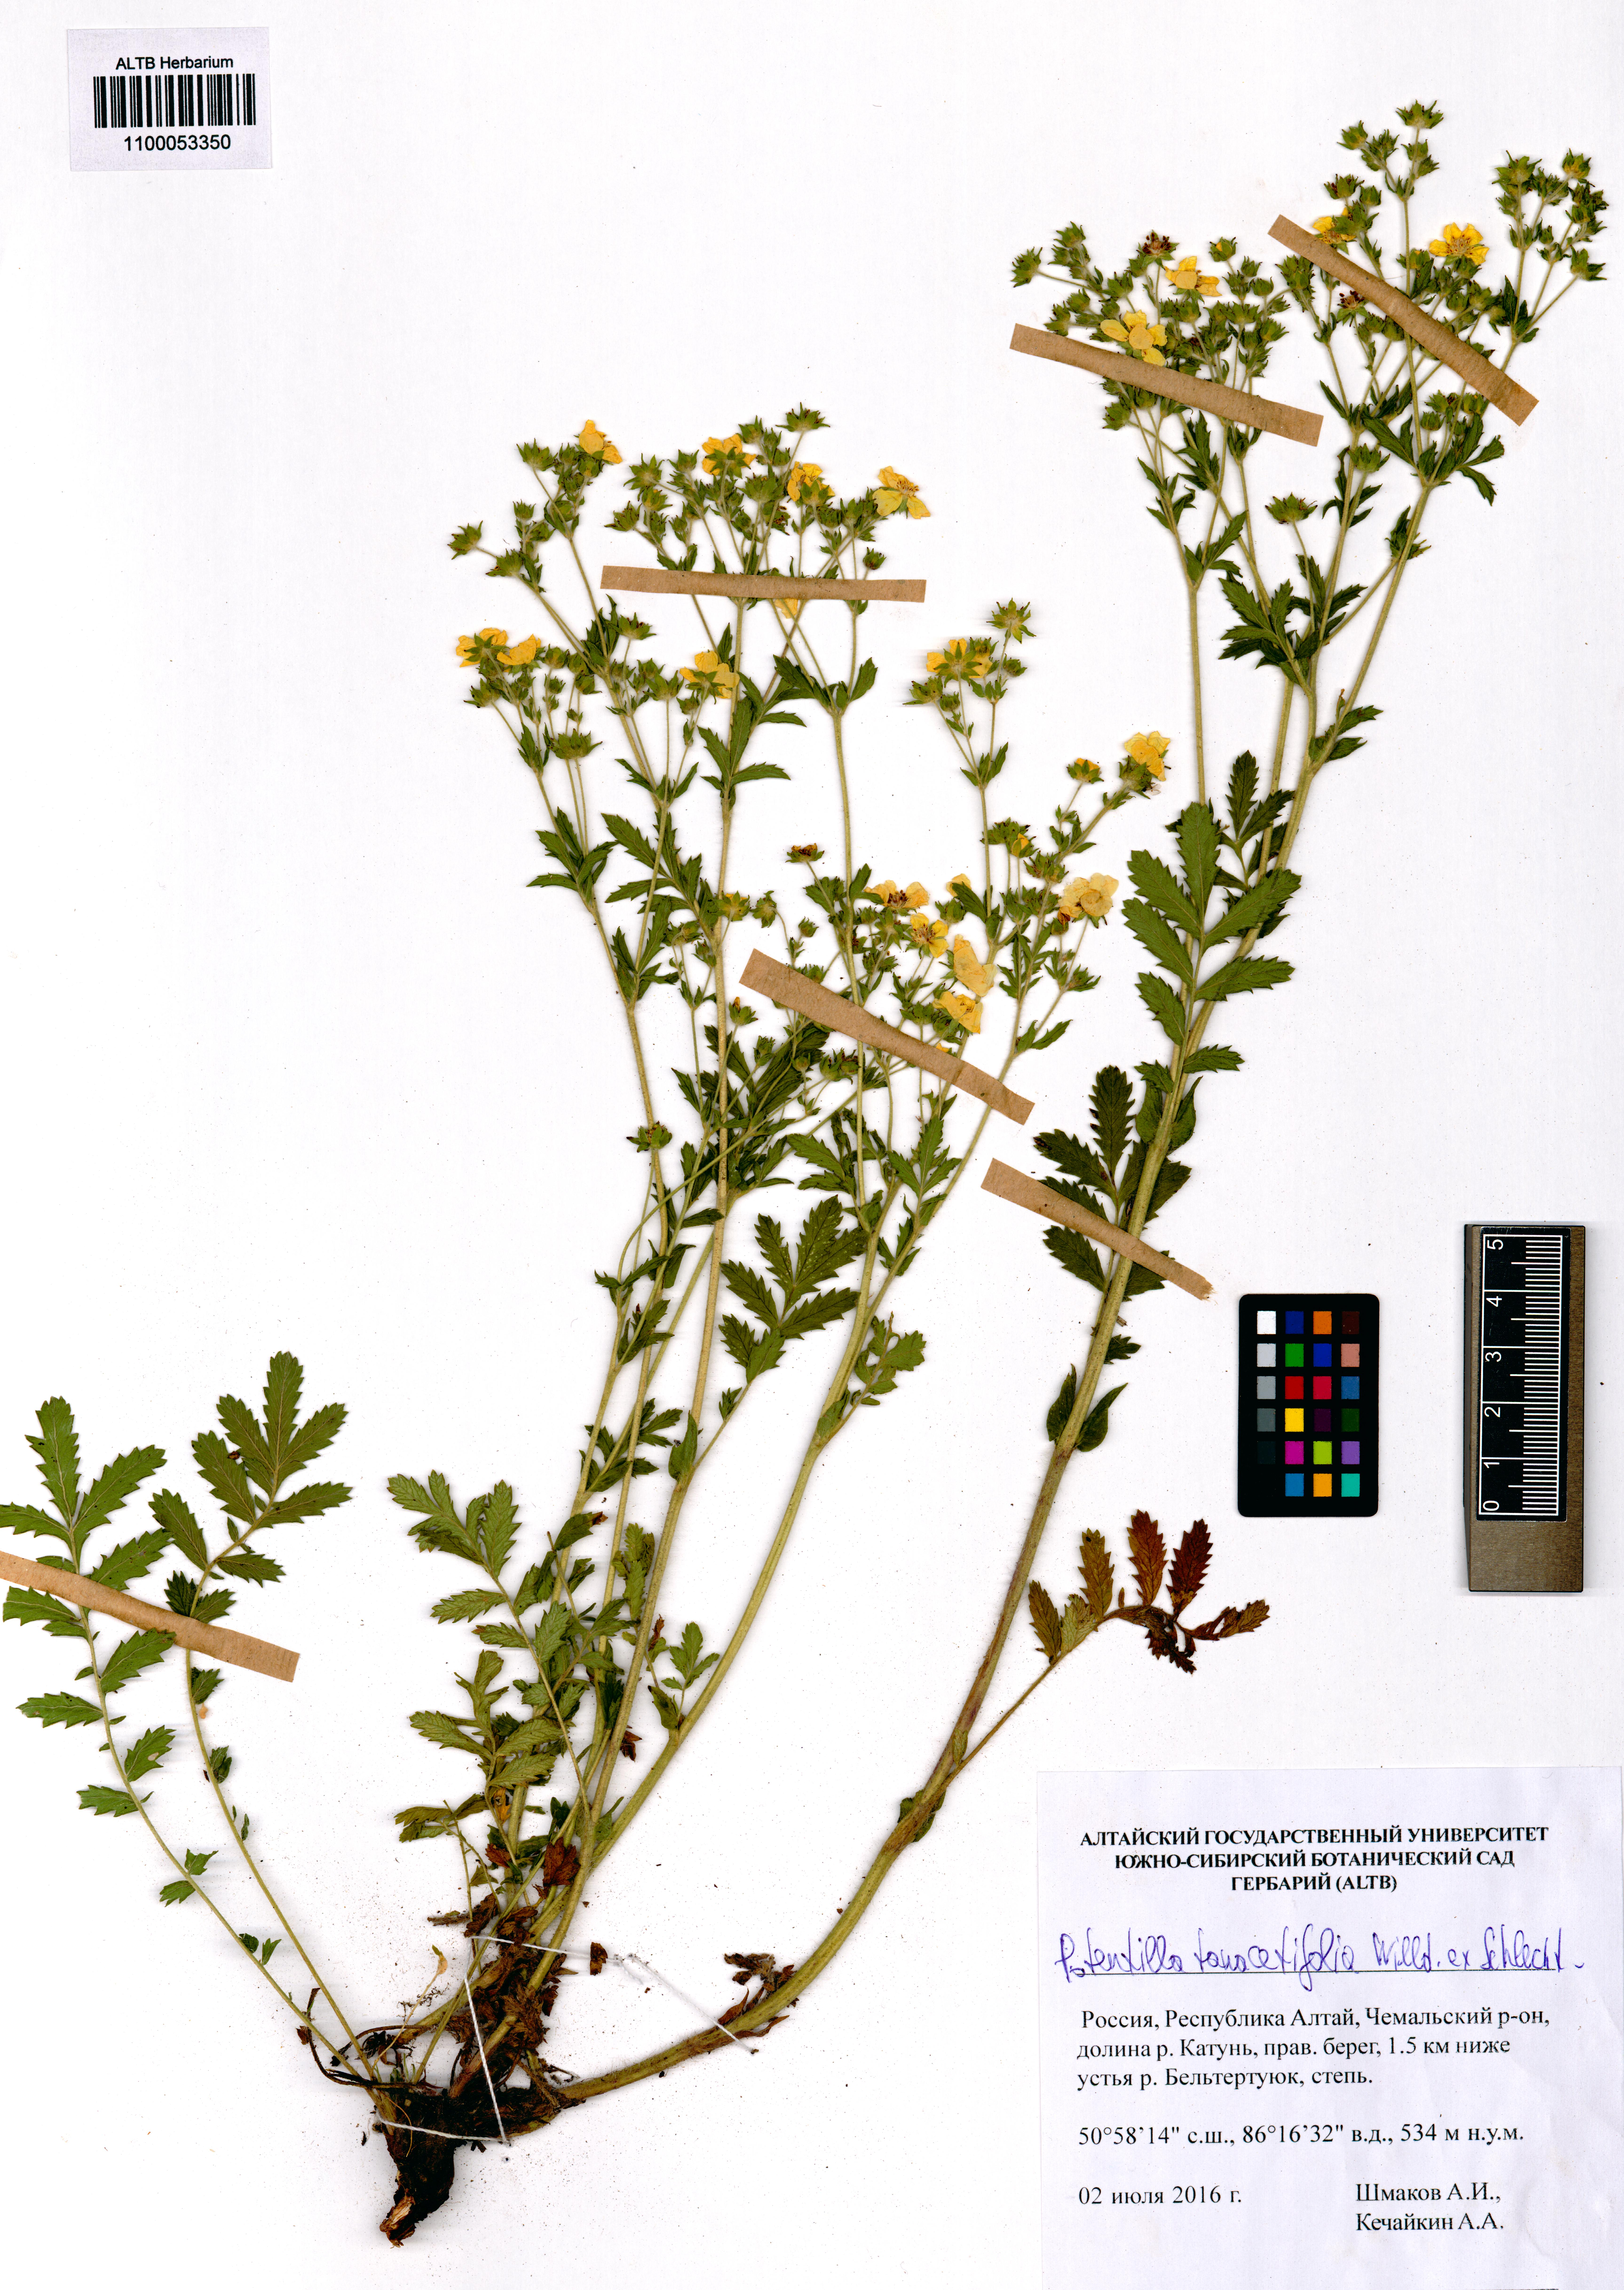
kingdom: Plantae
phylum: Tracheophyta
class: Magnoliopsida
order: Rosales
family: Rosaceae
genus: Potentilla
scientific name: Potentilla tanacetifolia
